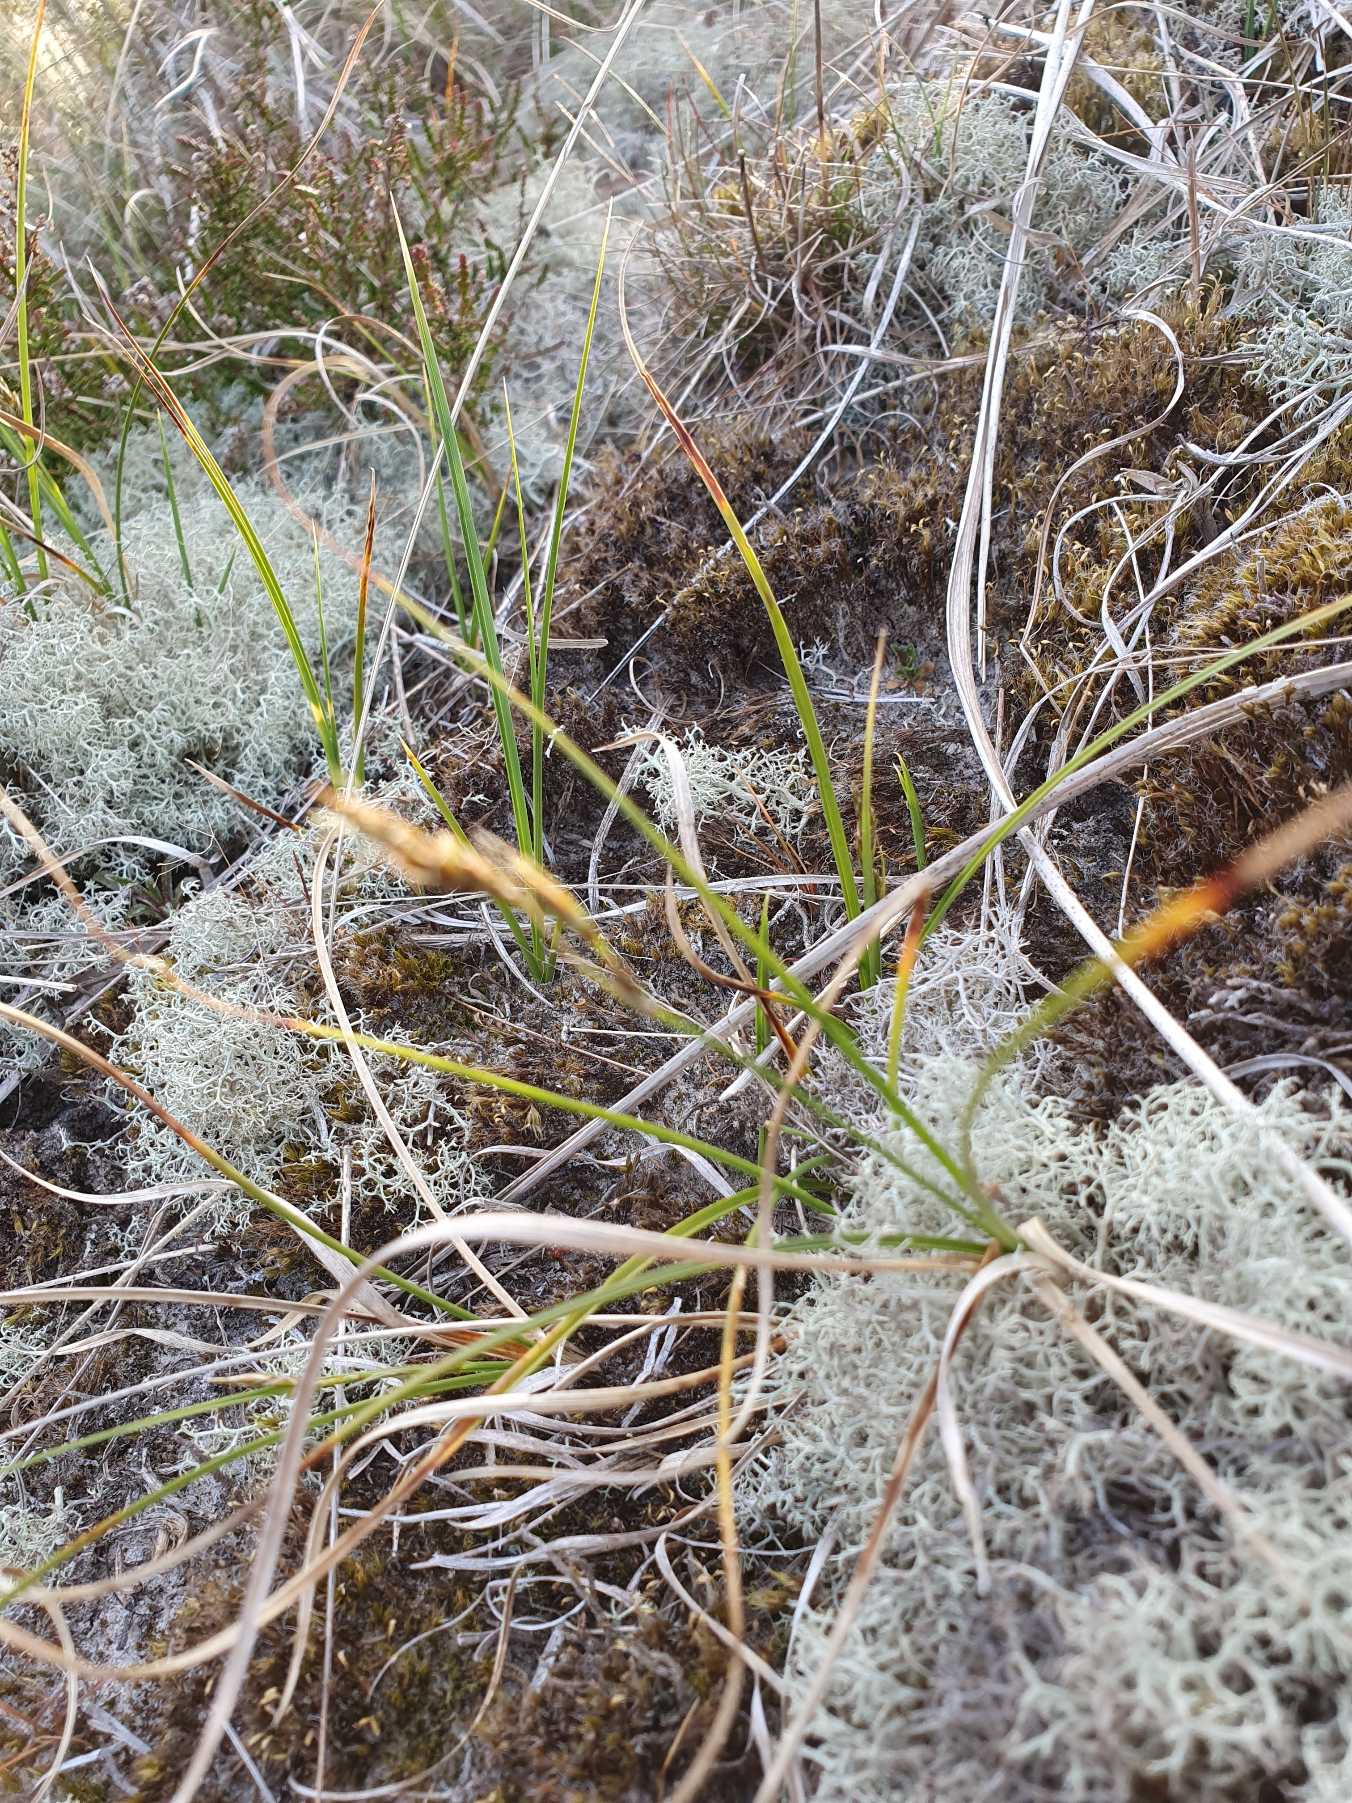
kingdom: Plantae
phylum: Tracheophyta
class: Liliopsida
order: Poales
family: Cyperaceae
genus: Carex
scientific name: Carex arenaria
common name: Sand-star
